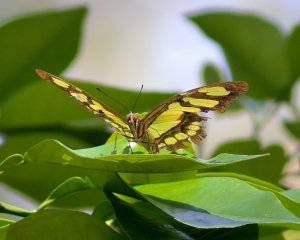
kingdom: Animalia
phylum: Arthropoda
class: Insecta
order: Lepidoptera
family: Nymphalidae
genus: Siproeta
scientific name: Siproeta stelenes
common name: Malachite
